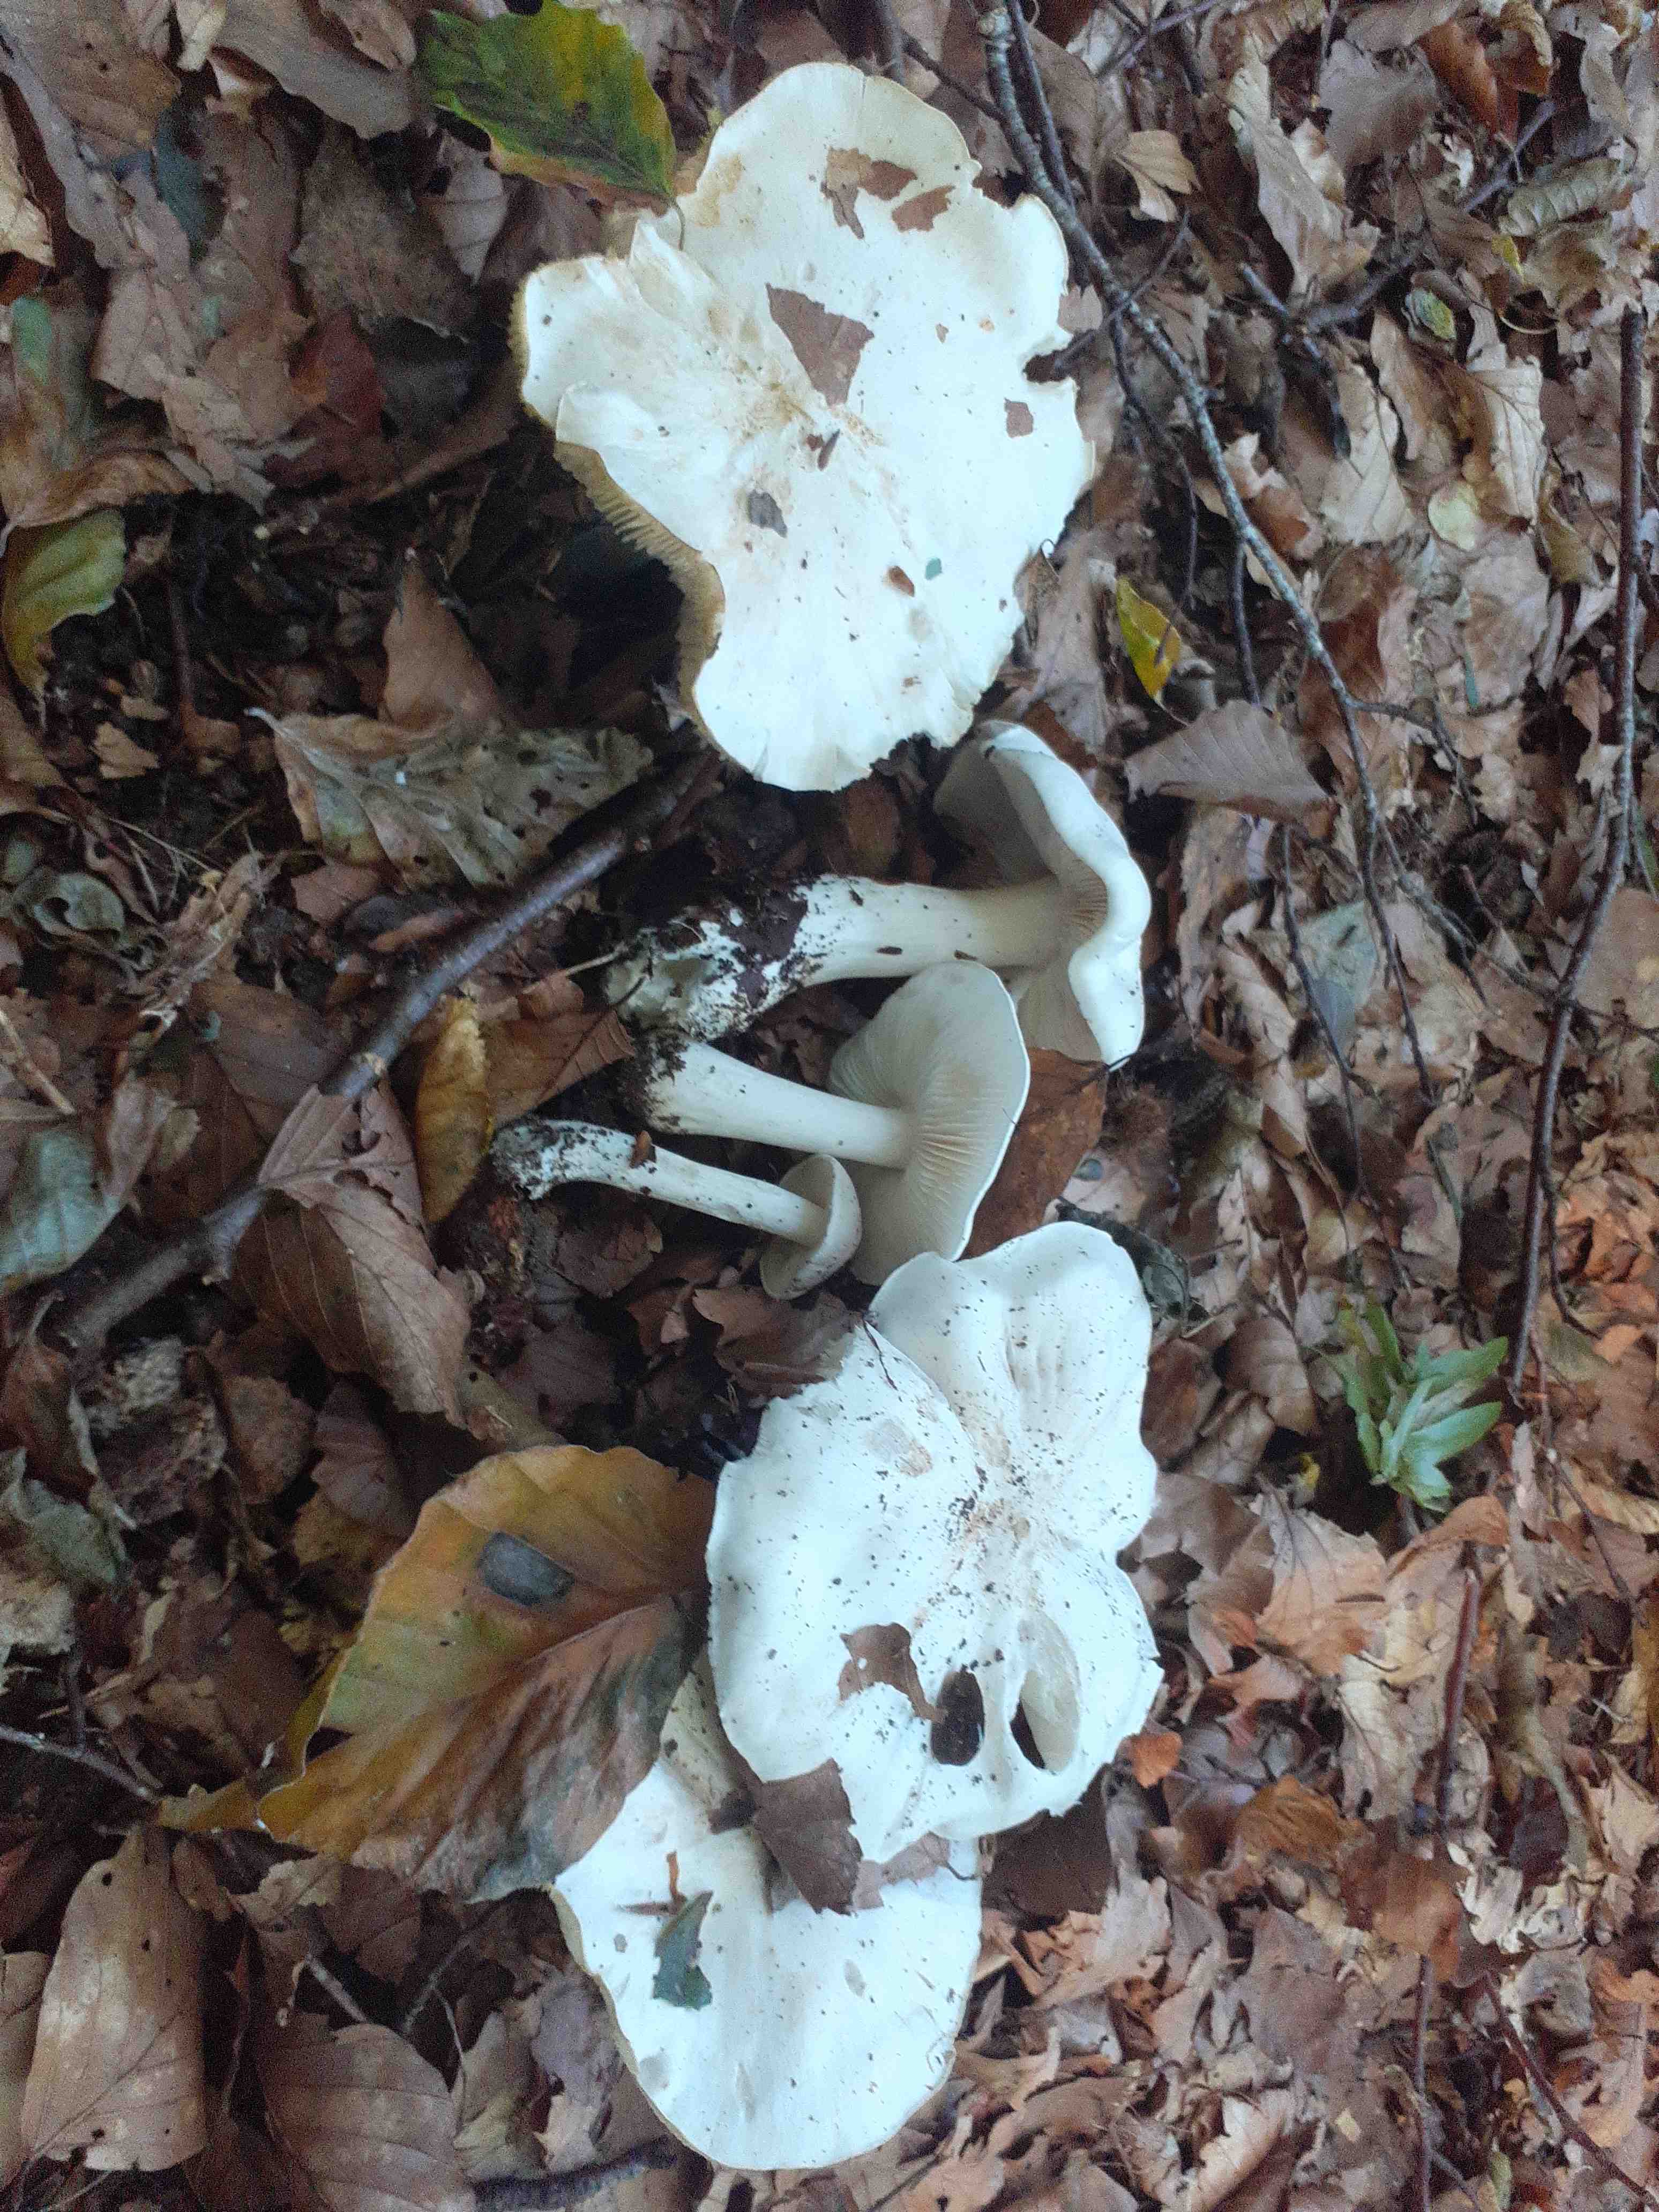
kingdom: Fungi
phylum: Basidiomycota
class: Agaricomycetes
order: Agaricales
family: Tricholomataceae
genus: Tricholoma
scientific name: Tricholoma columbetta
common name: silke-ridderhat
